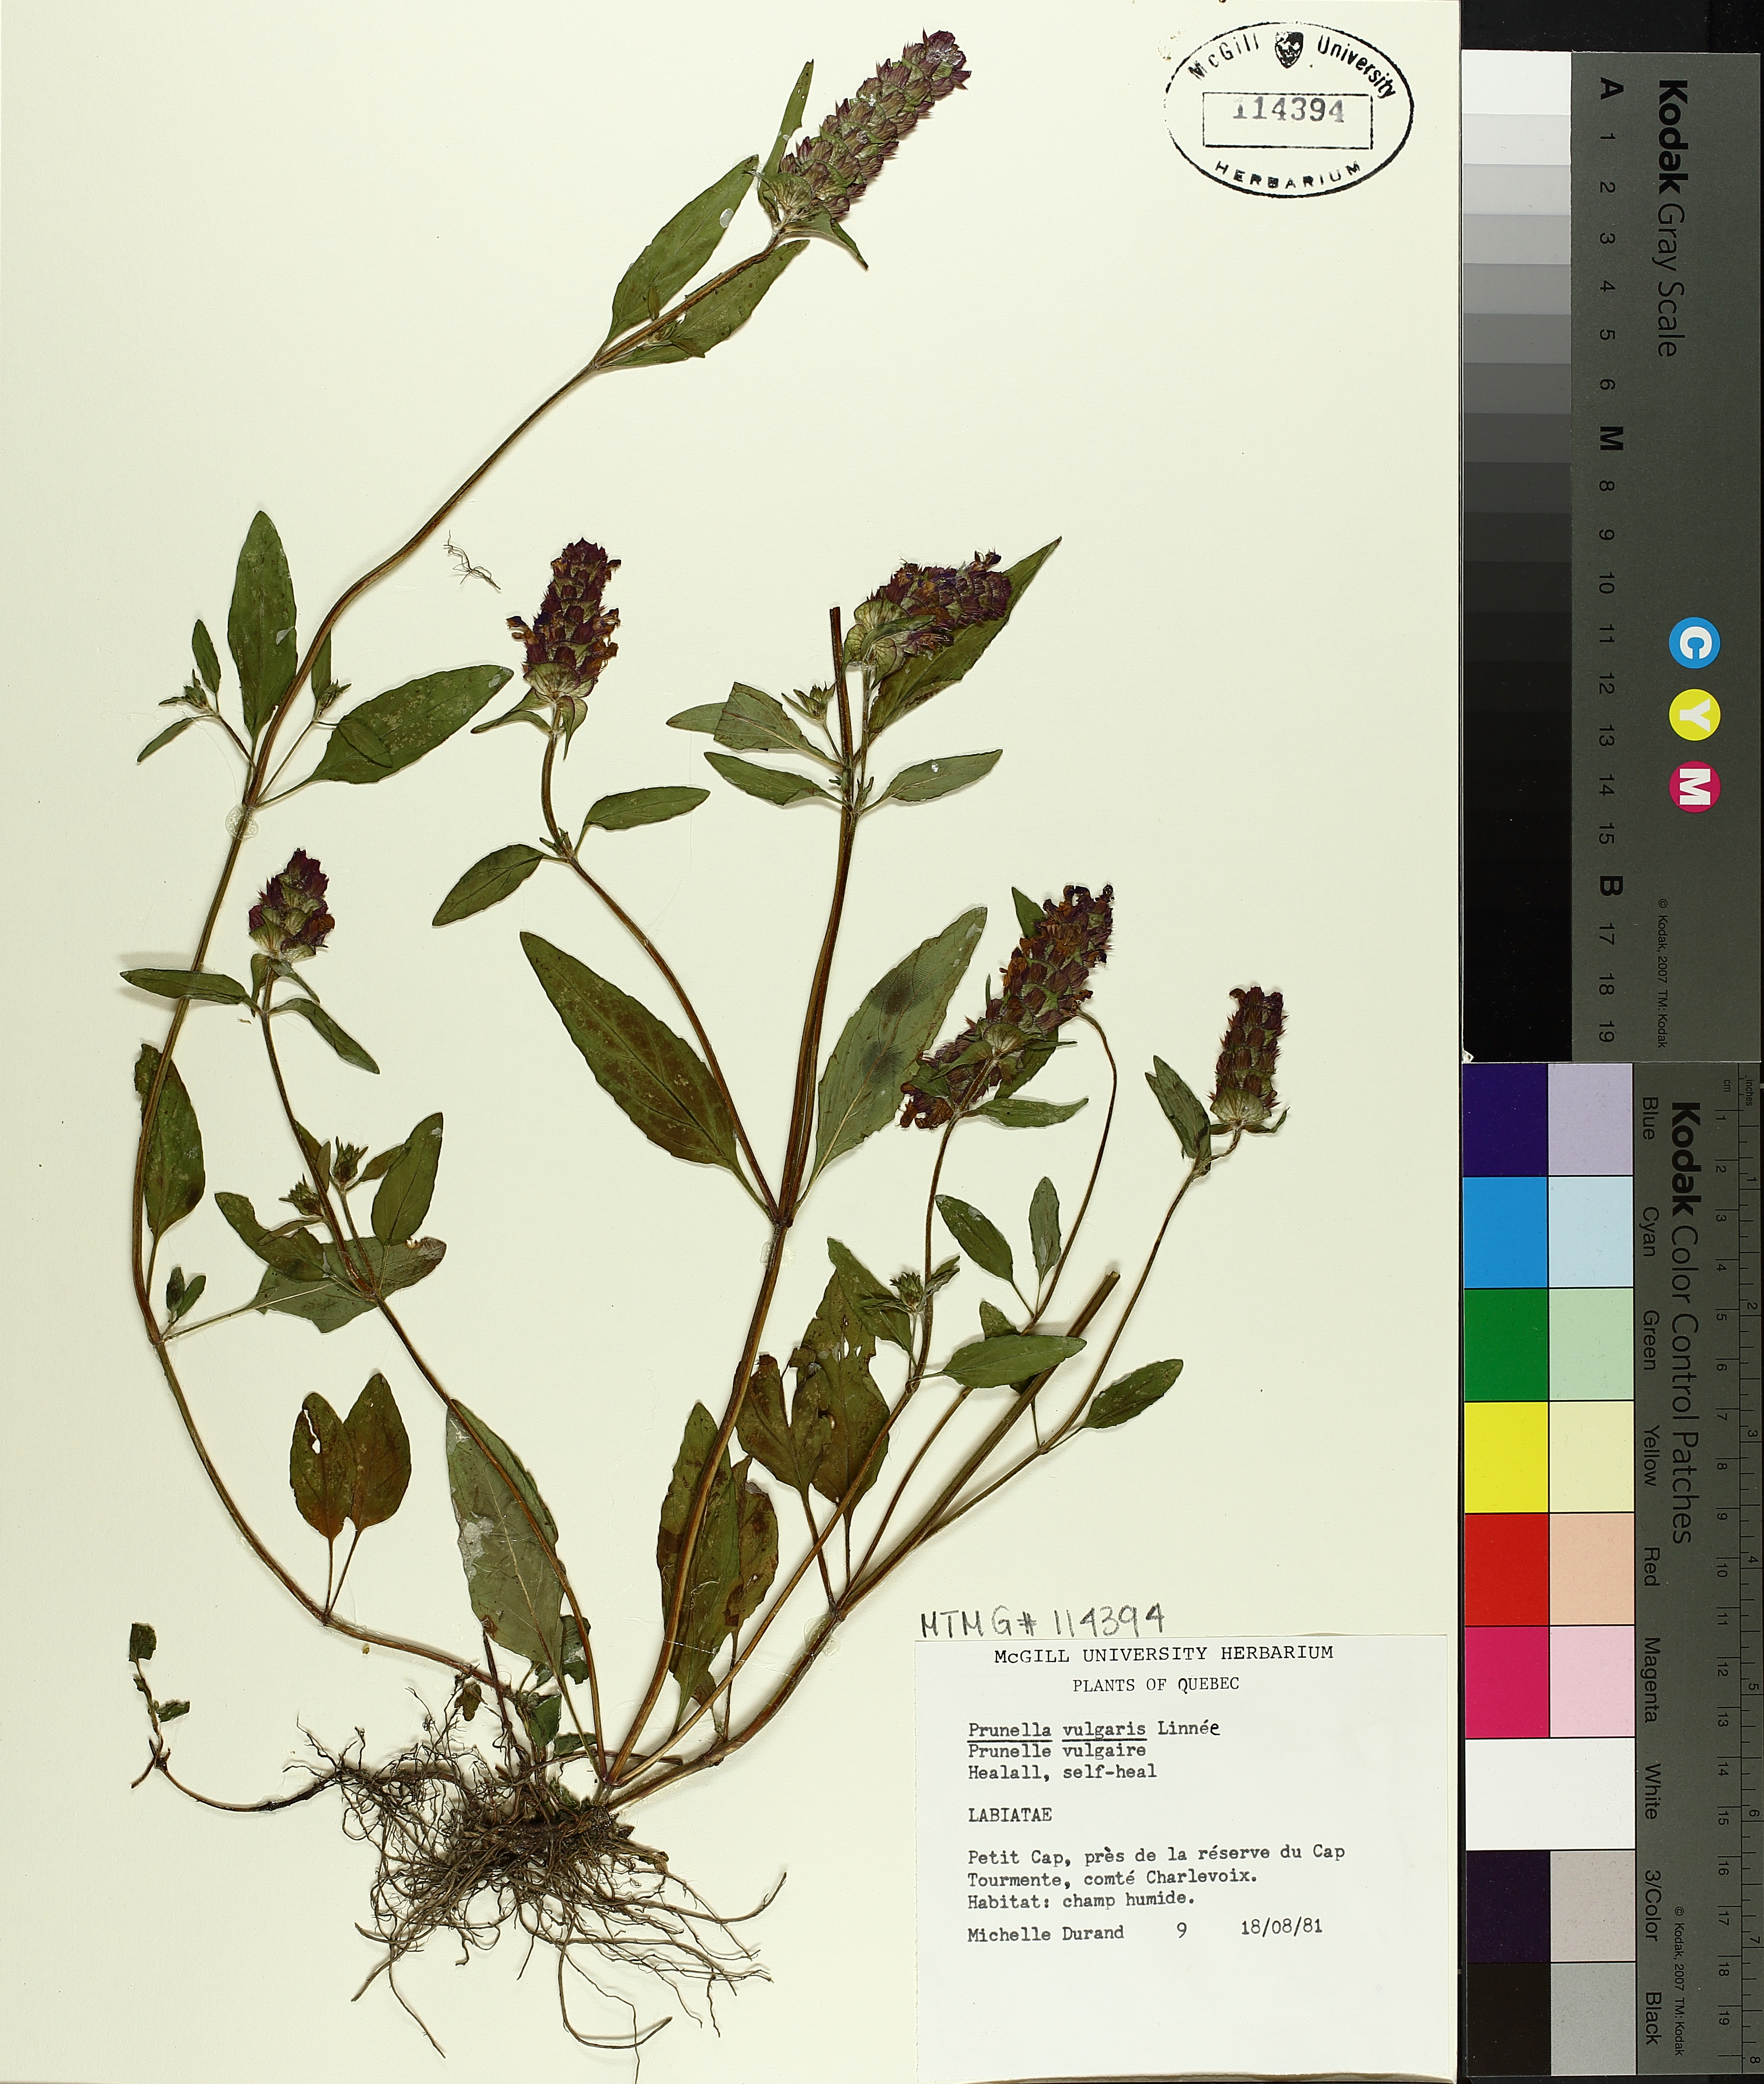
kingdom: Plantae
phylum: Tracheophyta
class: Magnoliopsida
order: Lamiales
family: Lamiaceae
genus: Prunella
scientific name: Prunella vulgaris
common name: Heal-all
